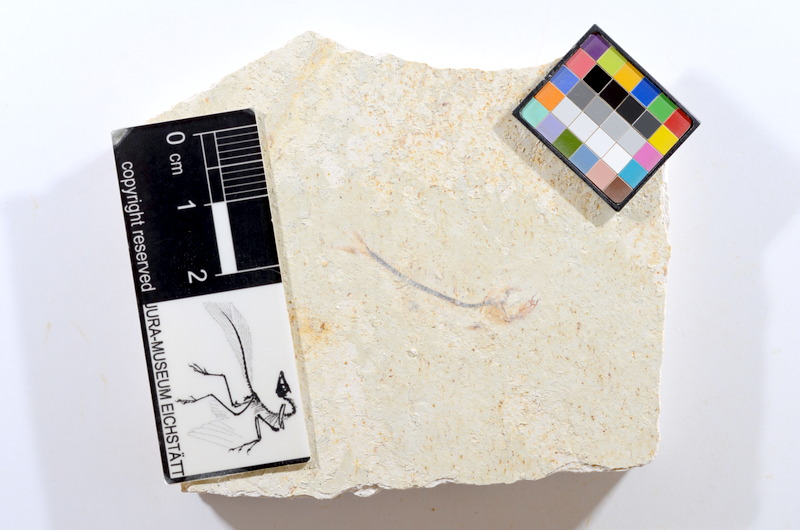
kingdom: Animalia
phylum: Chordata
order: Salmoniformes
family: Orthogonikleithridae
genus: Orthogonikleithrus
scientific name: Orthogonikleithrus hoelli
